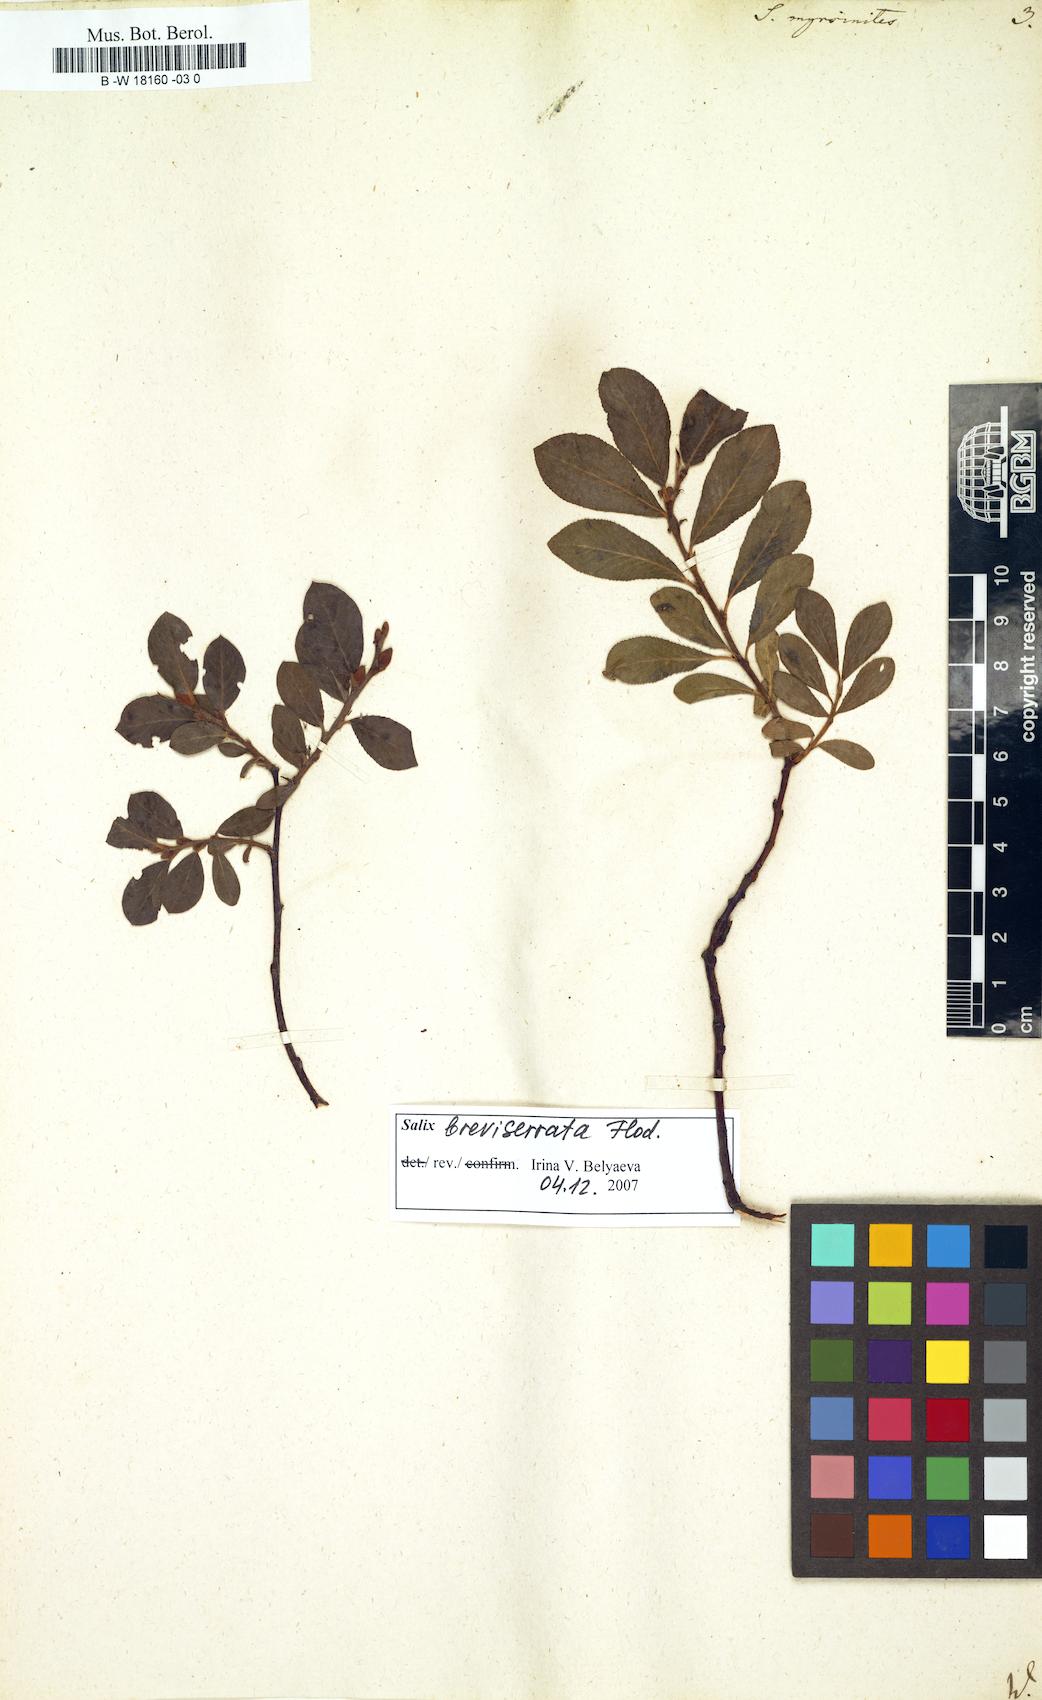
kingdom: Plantae
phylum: Tracheophyta
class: Magnoliopsida
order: Malpighiales
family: Salicaceae
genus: Salix
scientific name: Salix myrsinites
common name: Myrtle willow
